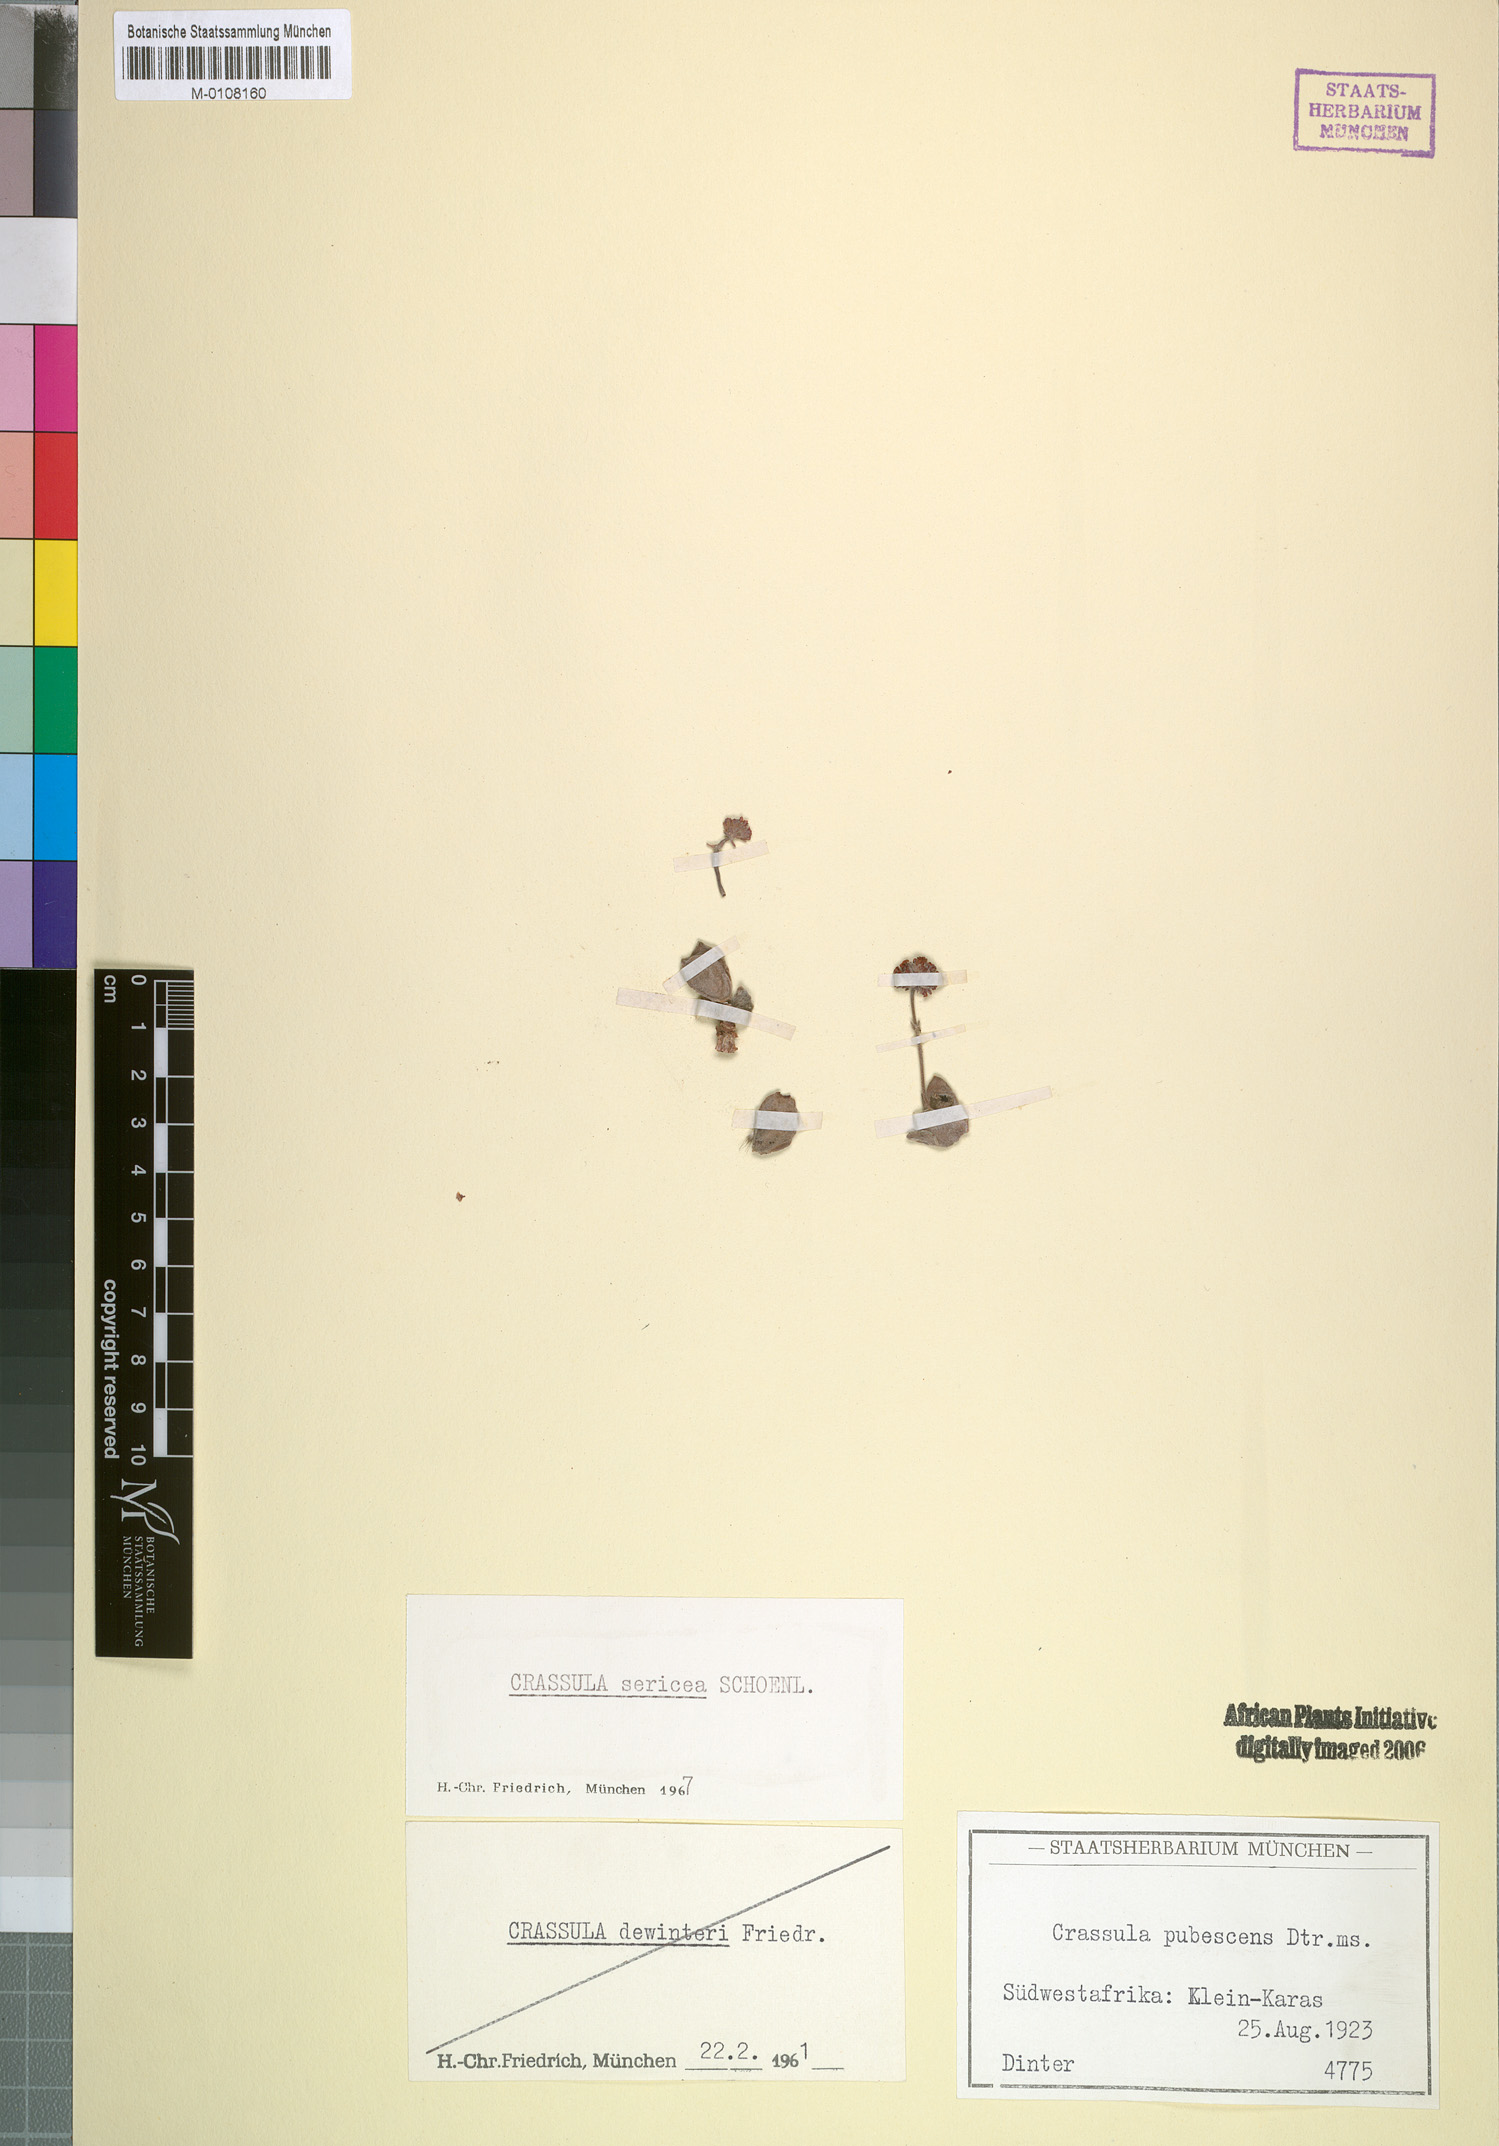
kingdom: Plantae
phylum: Tracheophyta
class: Magnoliopsida
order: Saxifragales
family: Crassulaceae
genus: Crassula
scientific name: Crassula sericea
